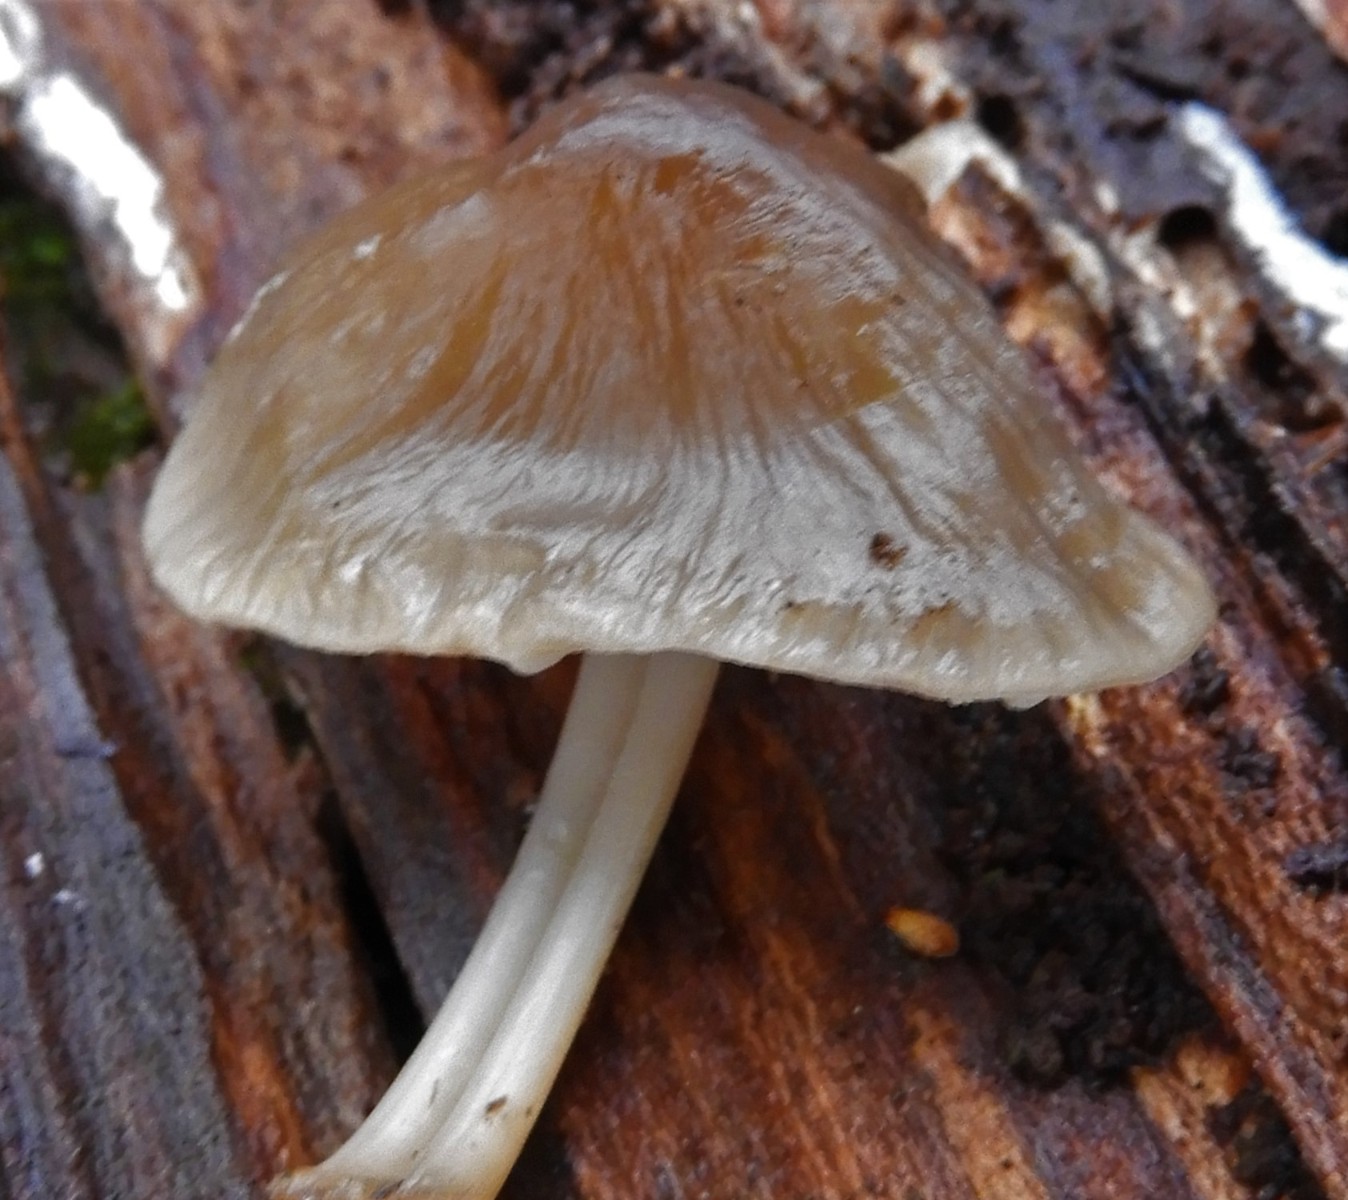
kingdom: Fungi
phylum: Basidiomycota
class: Agaricomycetes
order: Agaricales
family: Mycenaceae
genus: Mycena
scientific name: Mycena galericulata
